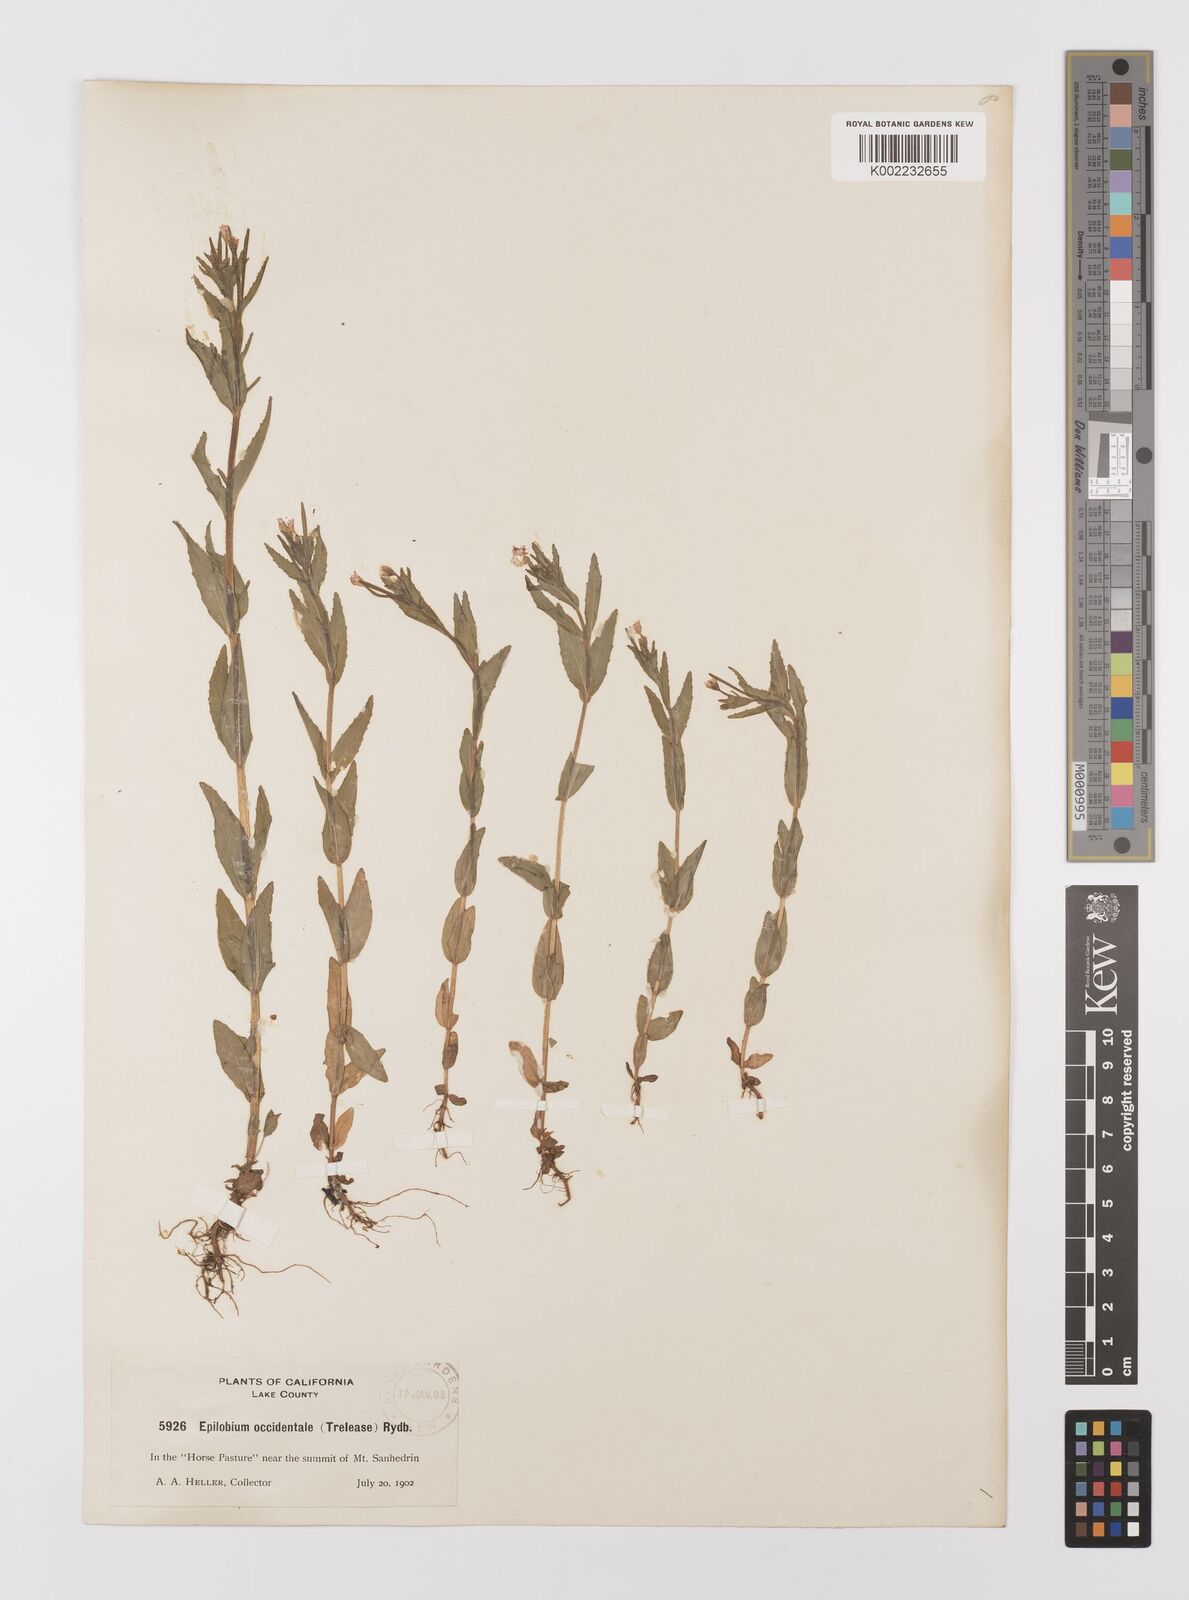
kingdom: Plantae
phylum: Tracheophyta
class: Magnoliopsida
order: Myrtales
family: Onagraceae
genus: Epilobium
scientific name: Epilobium ciliatum
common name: American willowherb
